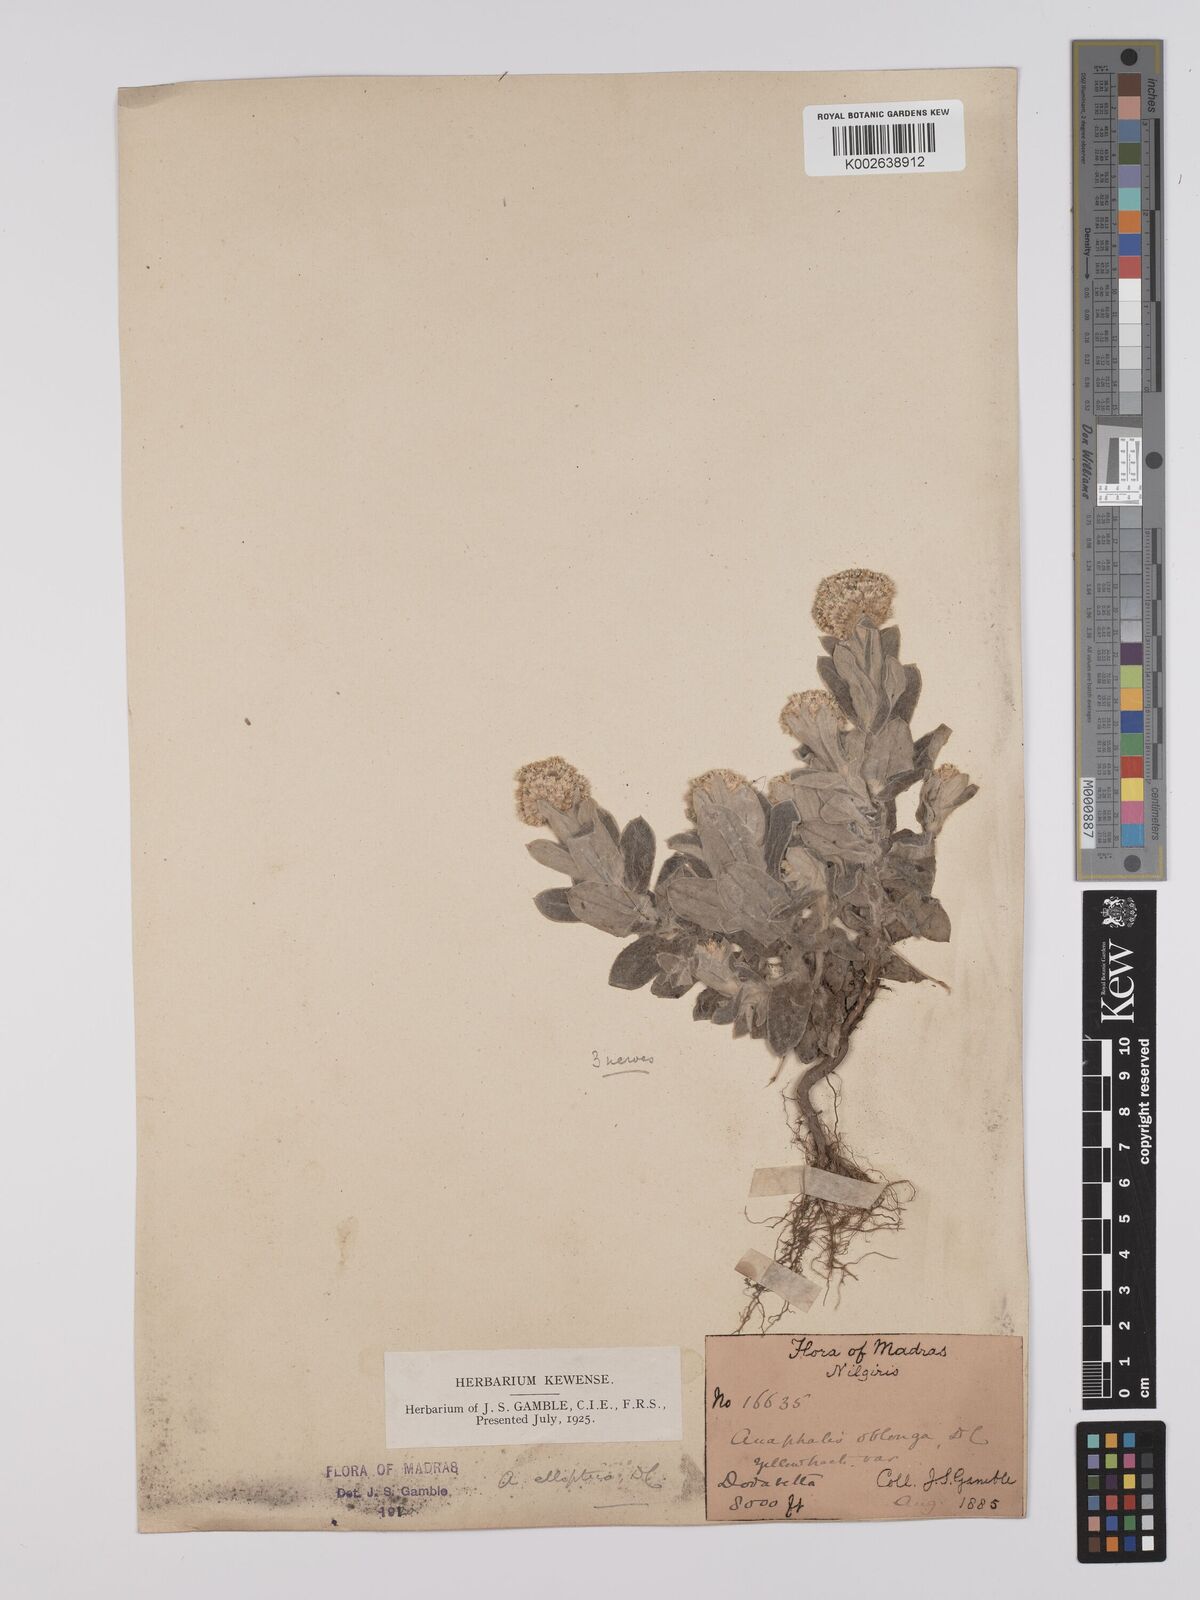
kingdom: Plantae
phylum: Tracheophyta
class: Magnoliopsida
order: Asterales
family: Asteraceae
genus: Anaphalis
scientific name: Anaphalis elliptica
